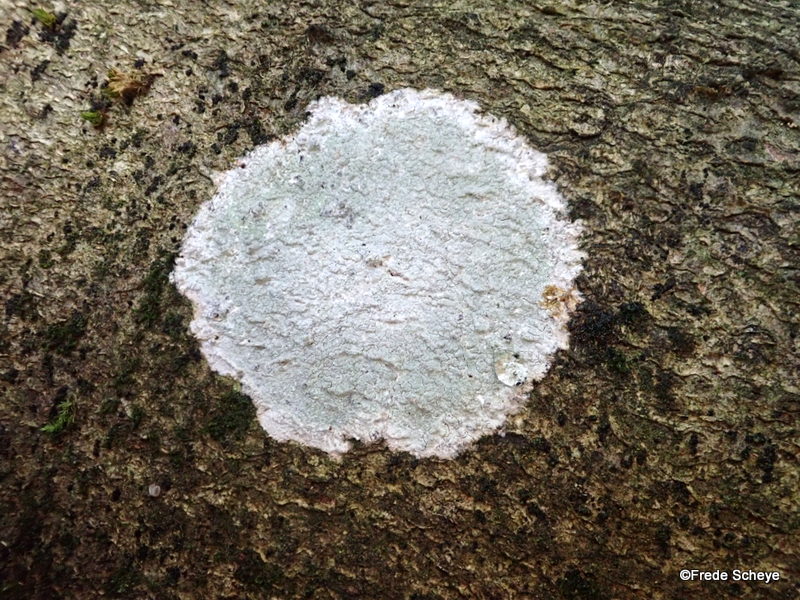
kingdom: Fungi
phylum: Ascomycota
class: Lecanoromycetes
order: Ostropales
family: Phlyctidaceae
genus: Phlyctis
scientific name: Phlyctis argena
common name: almindelig sølvlav
